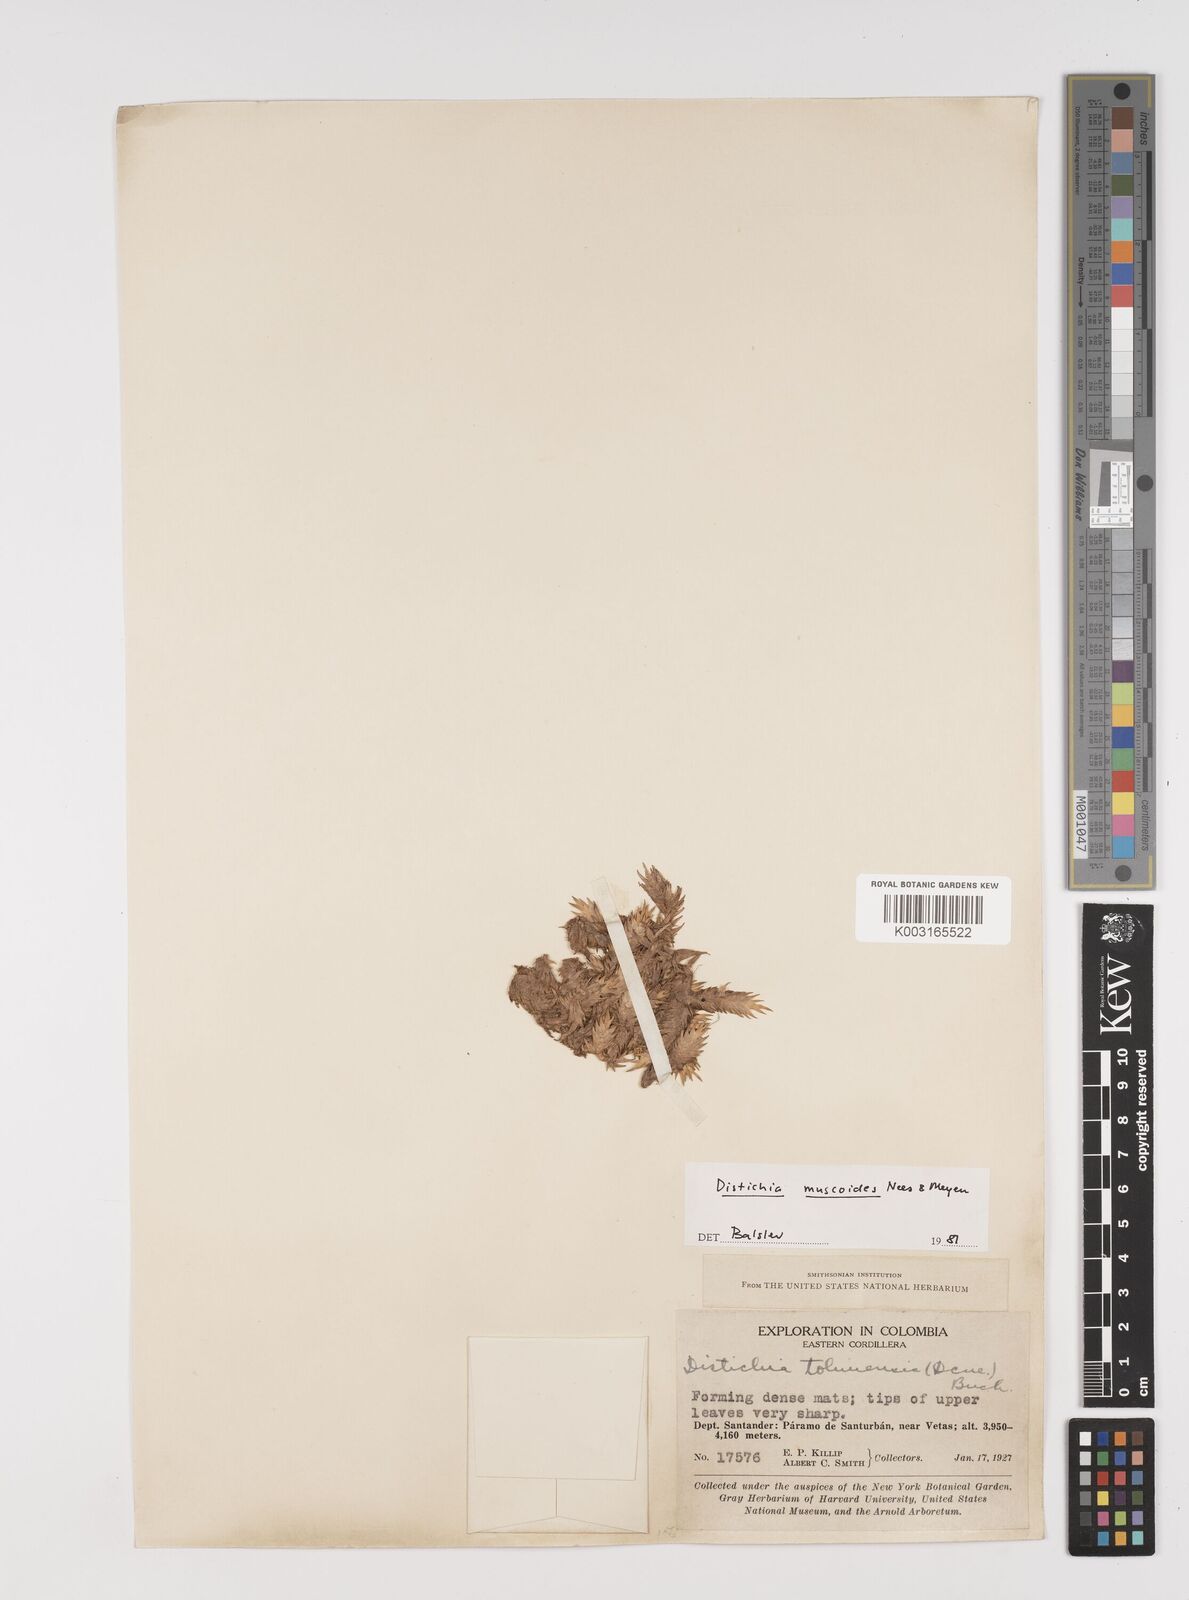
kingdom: Plantae
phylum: Tracheophyta
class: Liliopsida
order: Poales
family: Juncaceae
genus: Distichia
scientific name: Distichia muscoides
